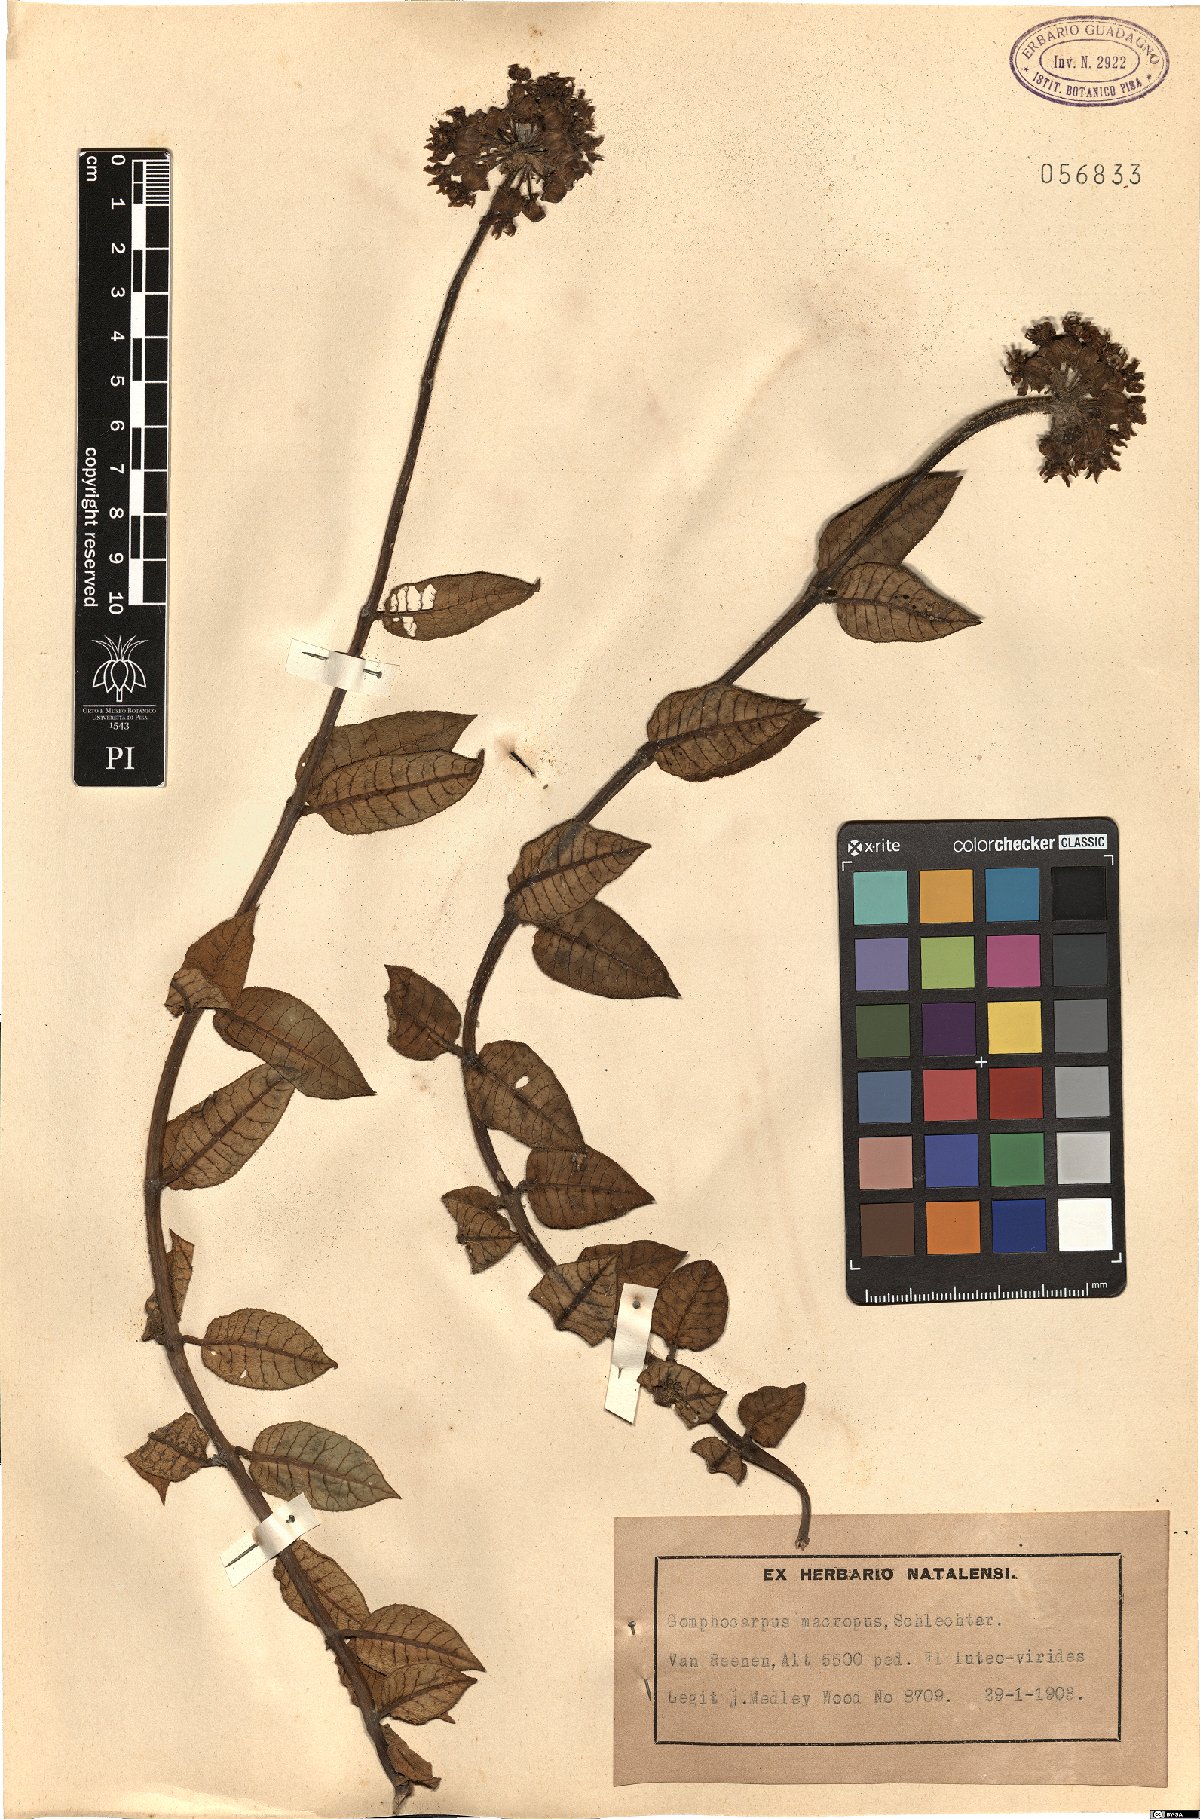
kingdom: Plantae
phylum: Tracheophyta
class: Magnoliopsida
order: Gentianales
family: Apocynaceae
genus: Asclepias
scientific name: Asclepias macropus
